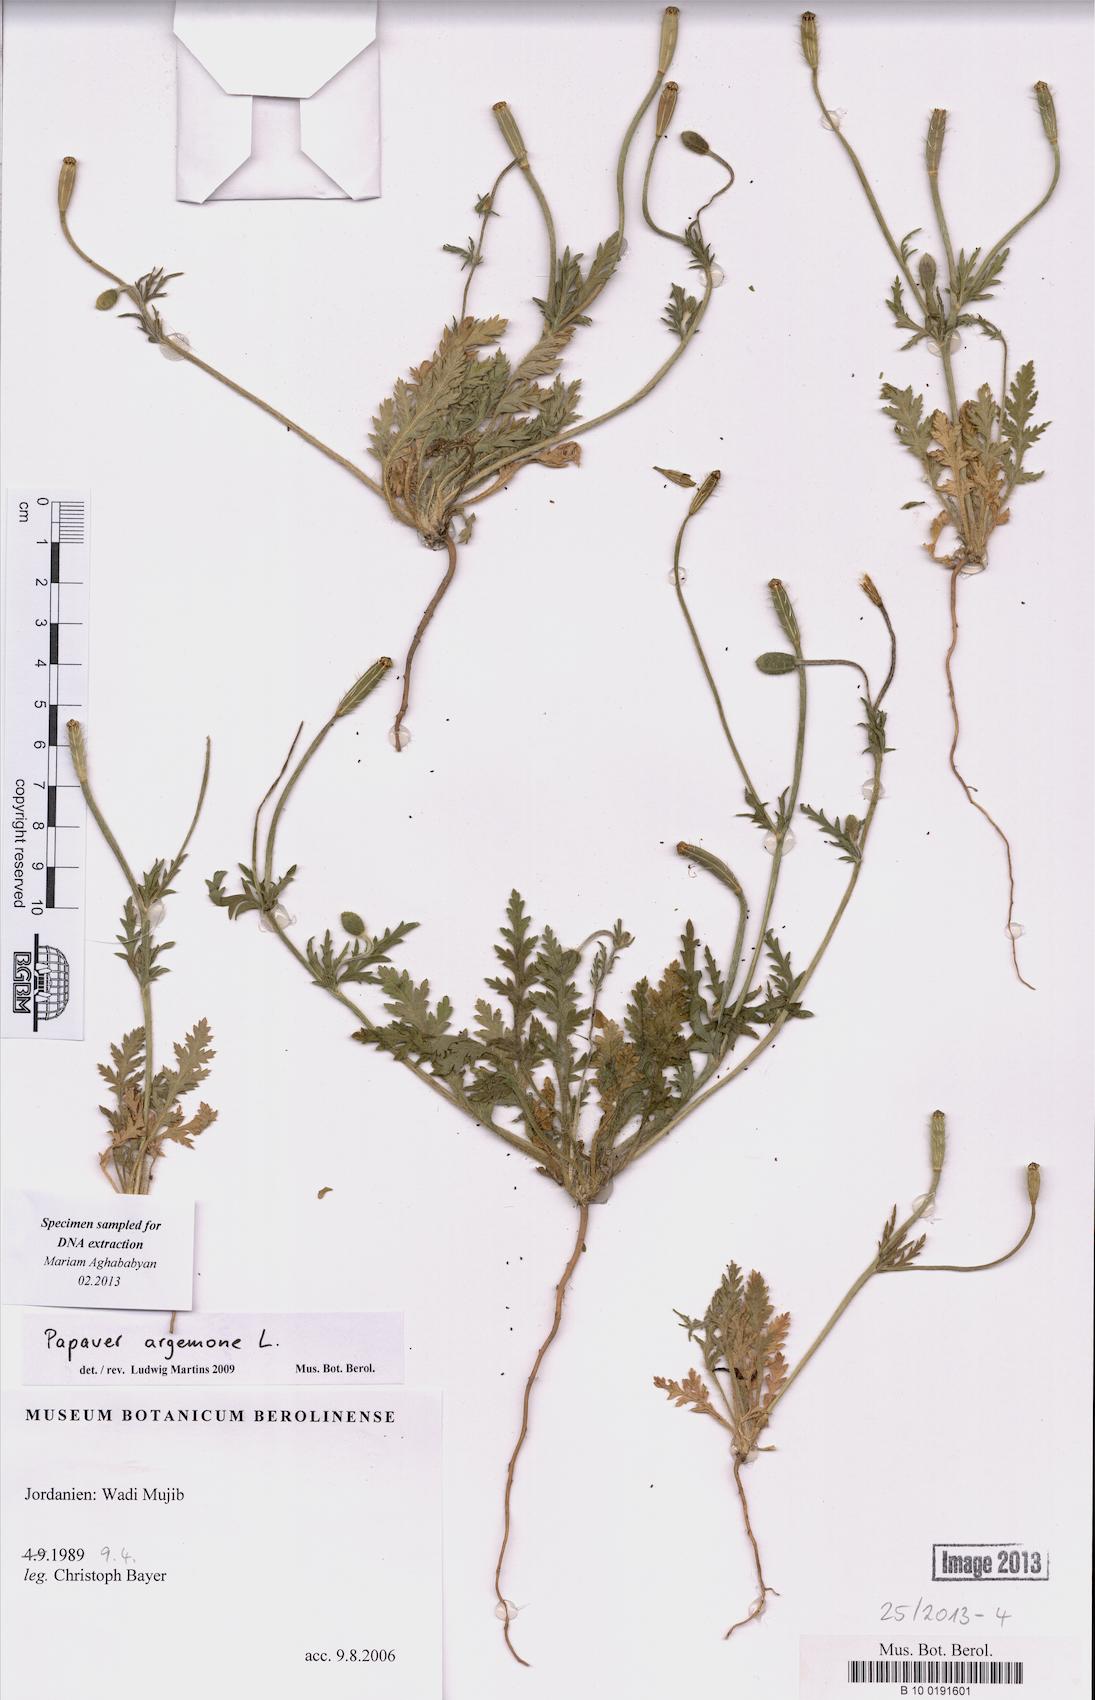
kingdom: Plantae
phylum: Tracheophyta
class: Magnoliopsida
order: Ranunculales
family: Papaveraceae
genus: Roemeria
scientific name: Roemeria argemone
